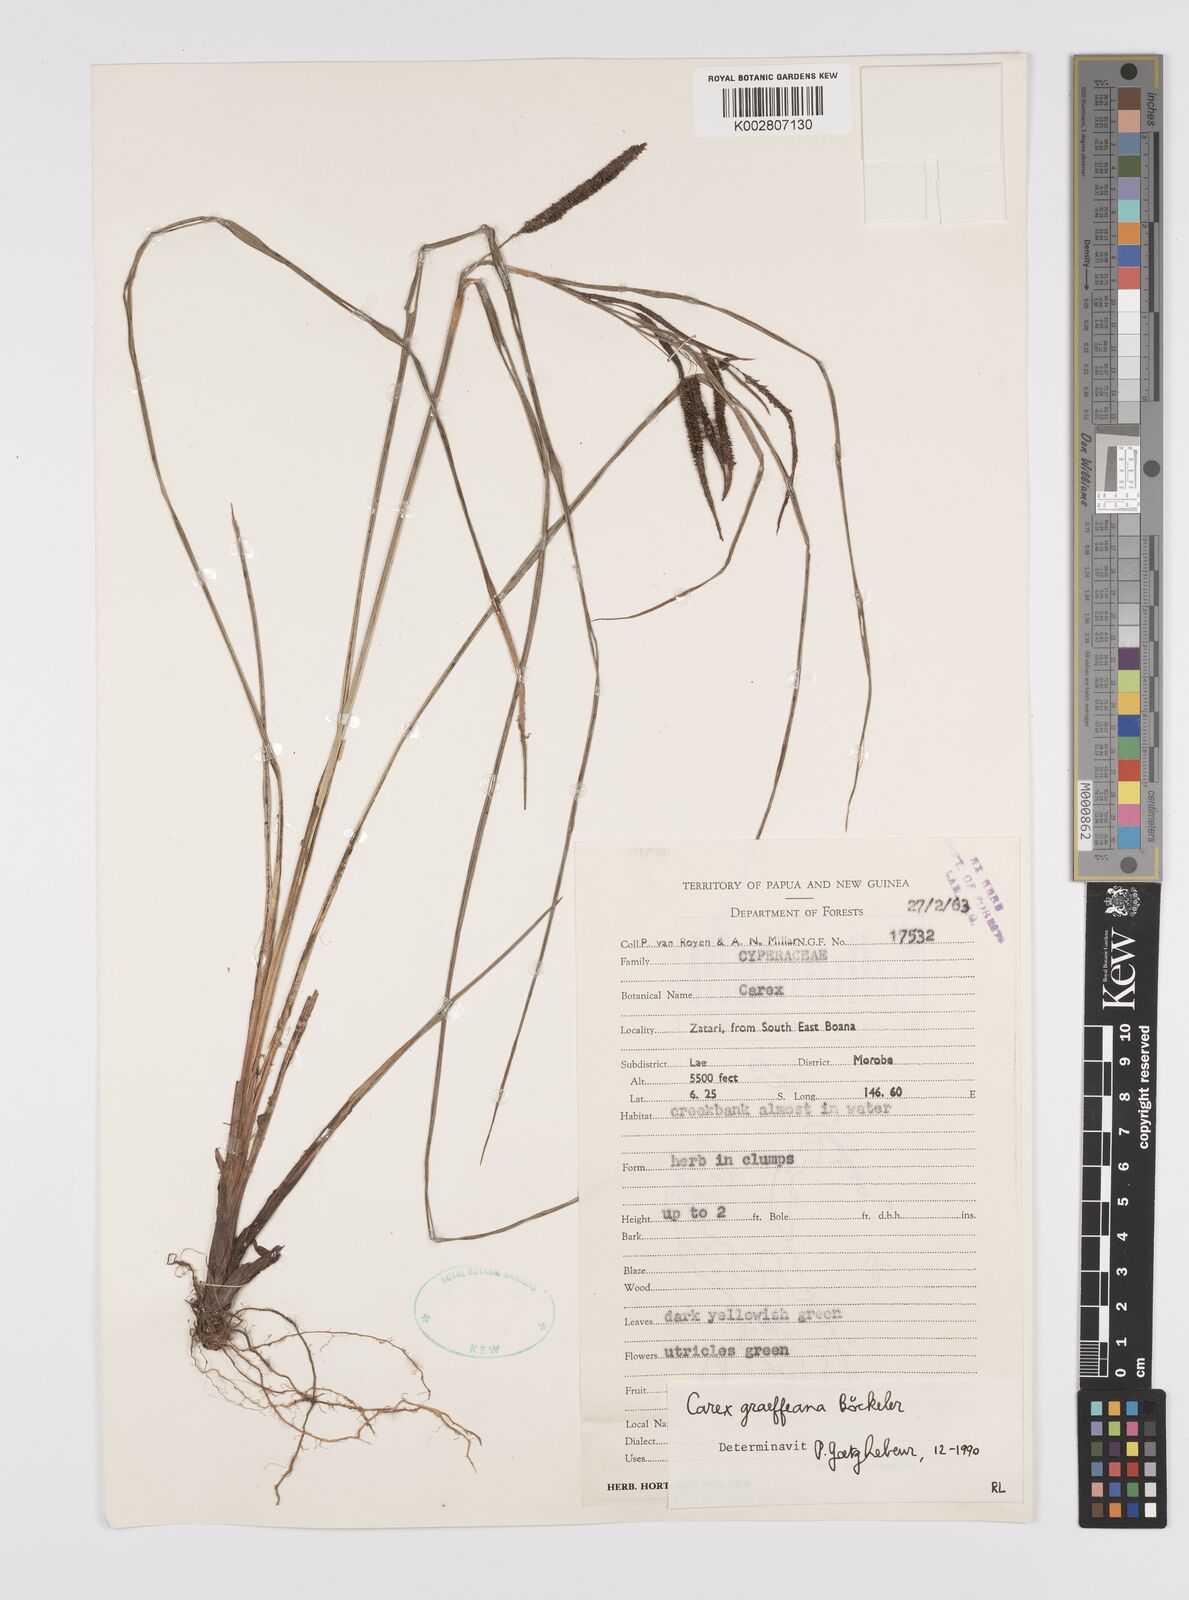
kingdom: Plantae
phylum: Tracheophyta
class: Liliopsida
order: Poales
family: Cyperaceae
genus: Carex
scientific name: Carex graeffeana
